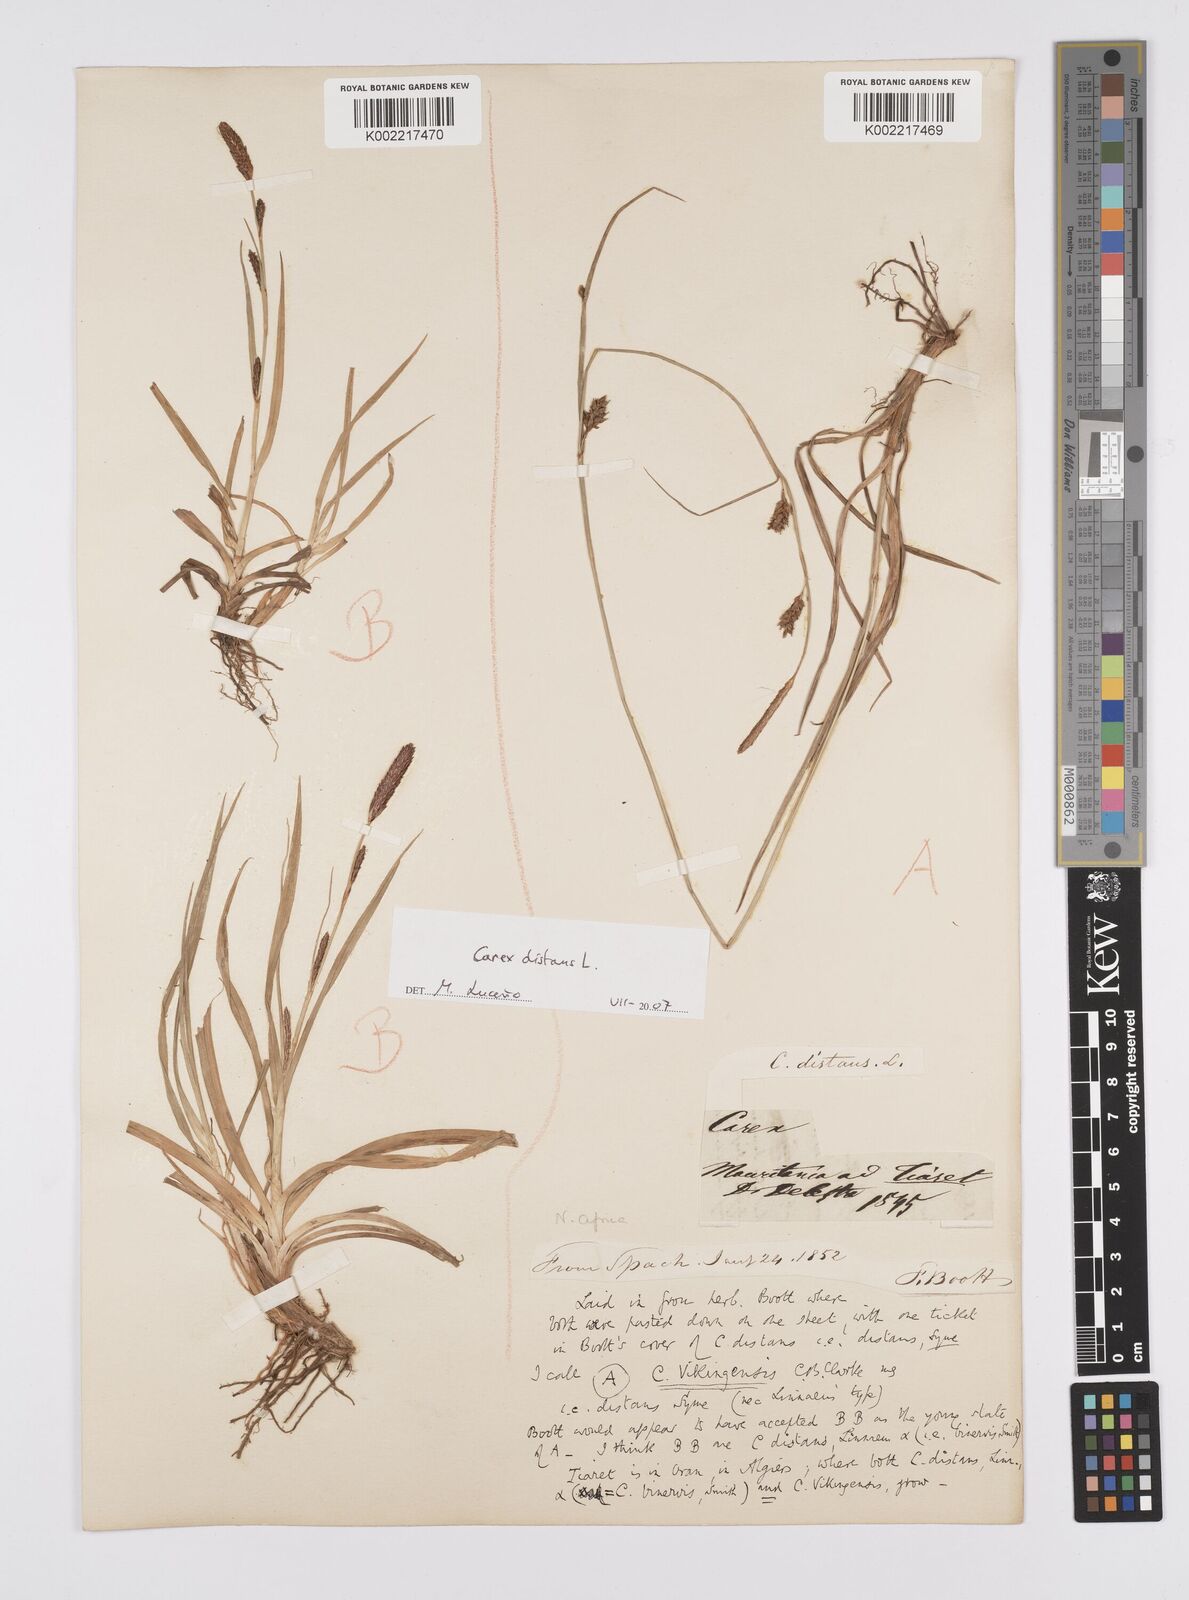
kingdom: Plantae
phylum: Tracheophyta
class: Liliopsida
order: Poales
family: Cyperaceae
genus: Carex
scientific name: Carex distans
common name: Distant sedge
